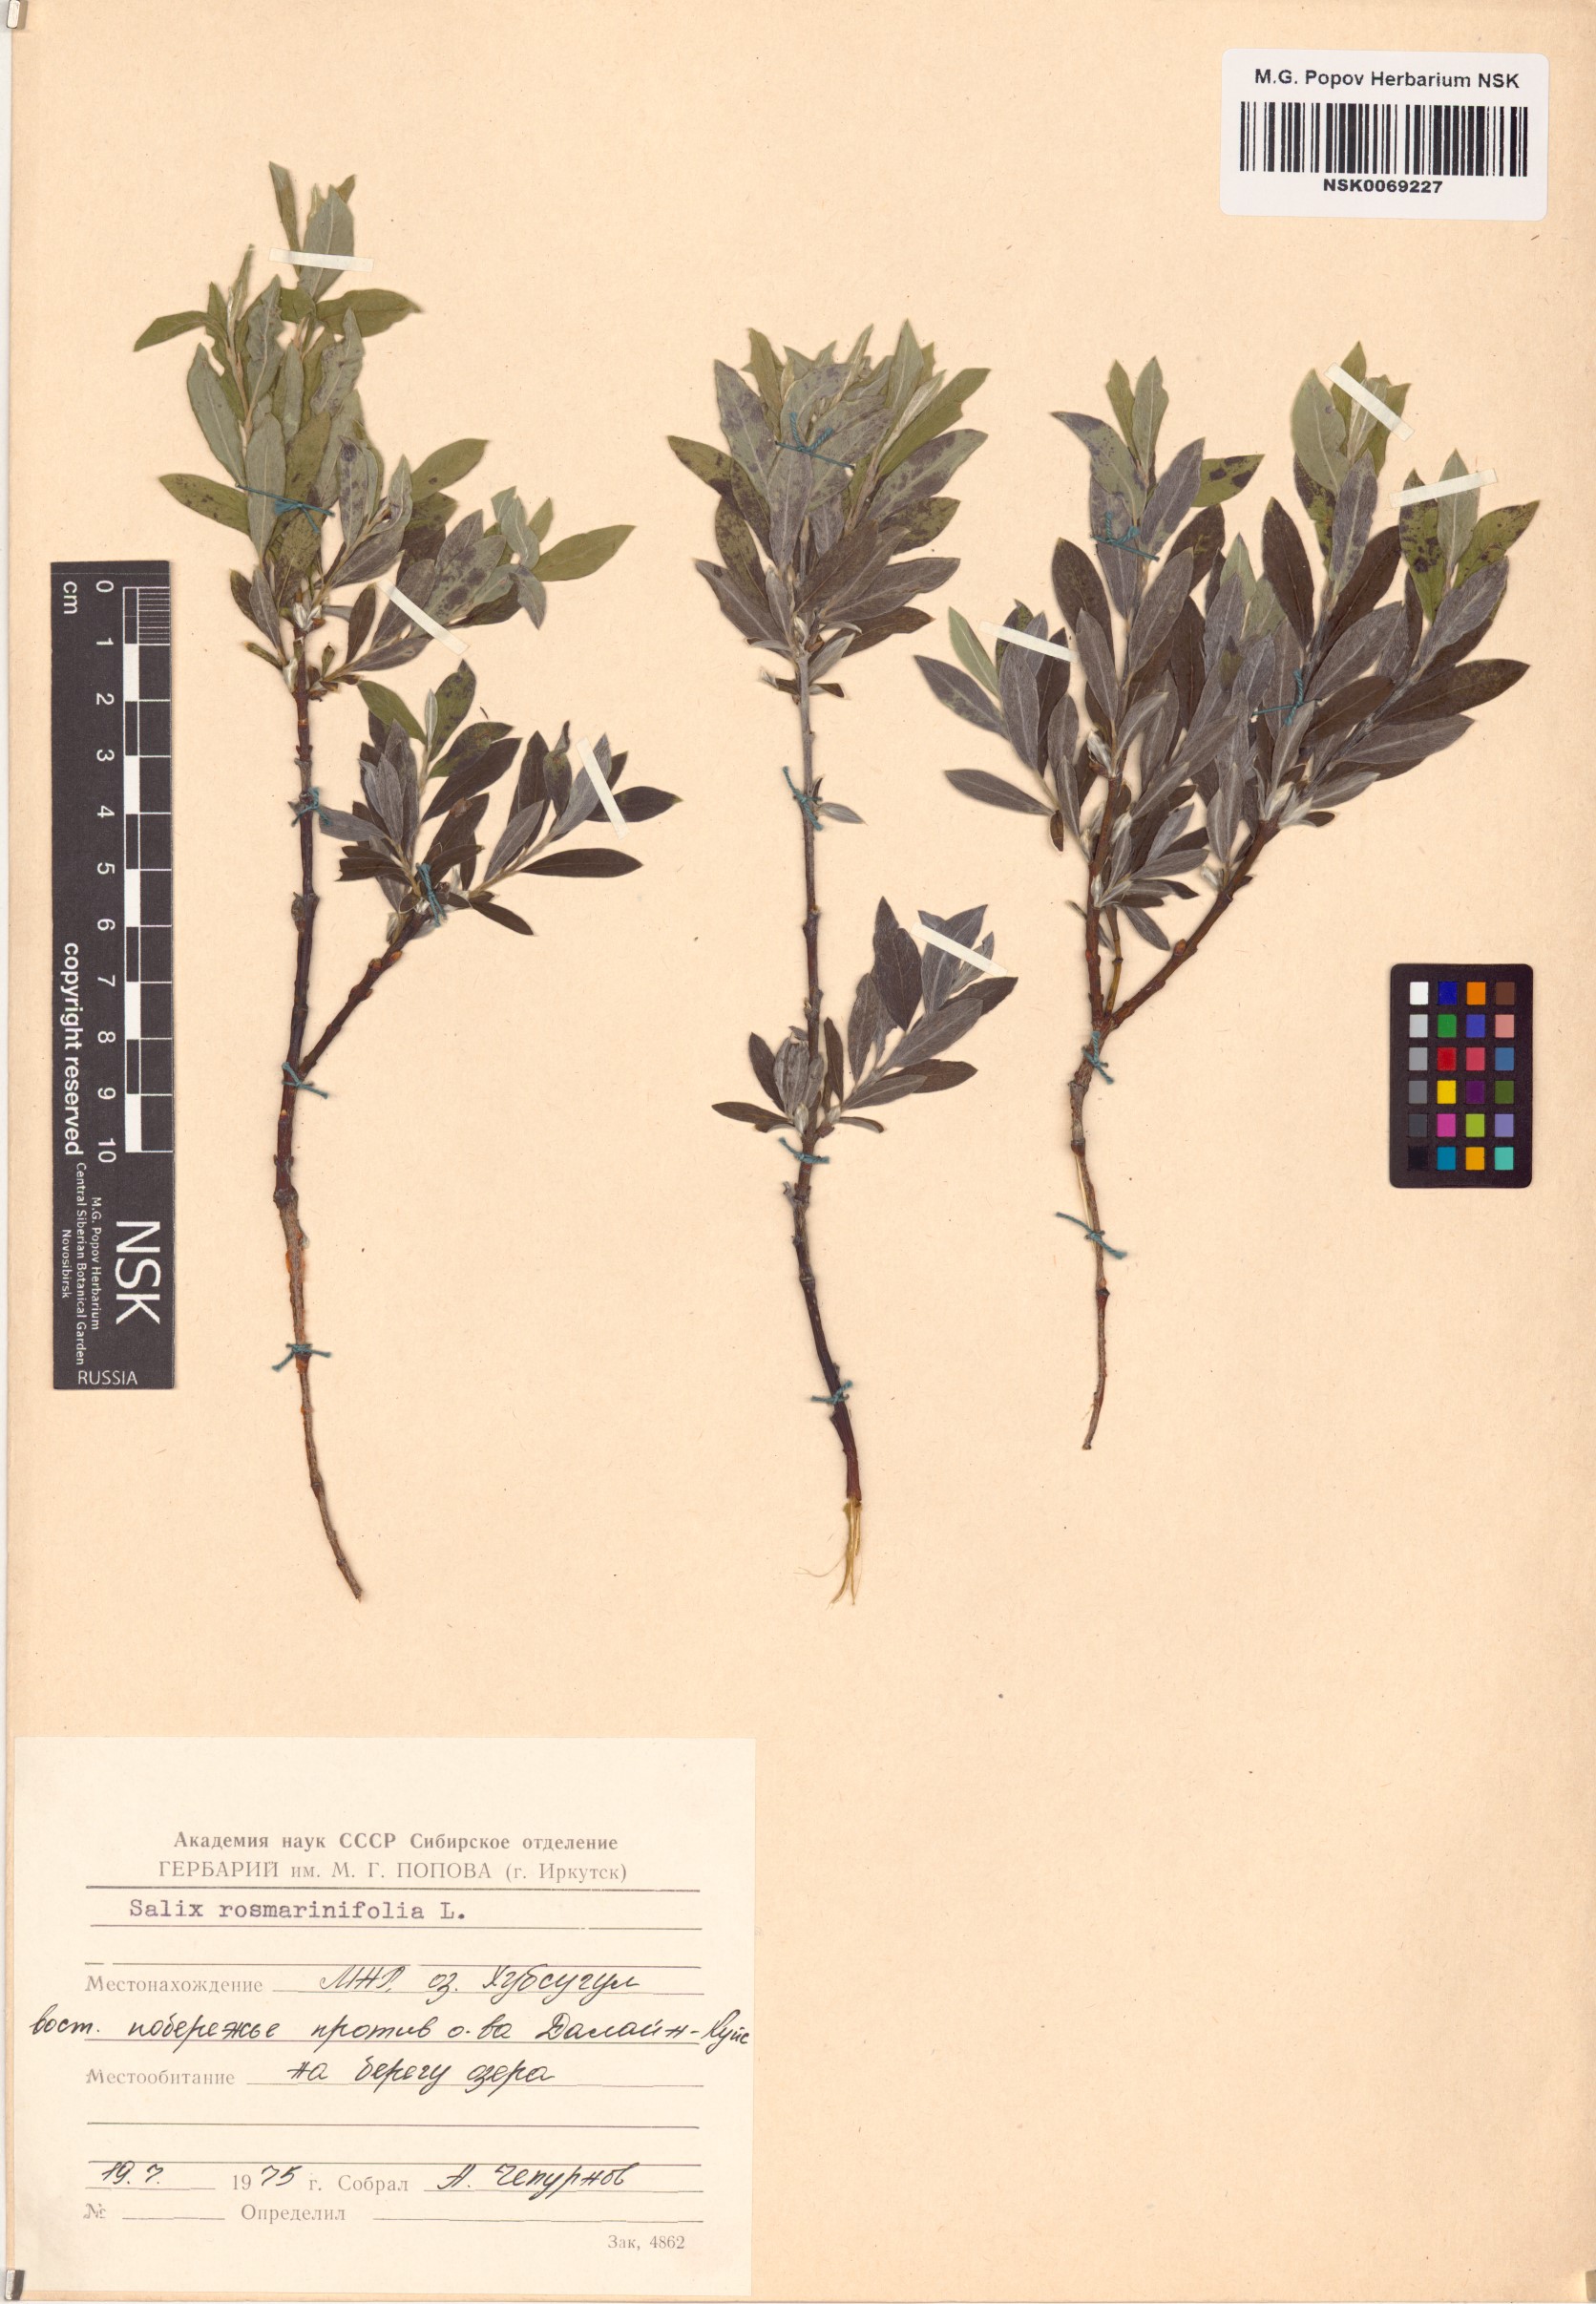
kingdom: Plantae
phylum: Tracheophyta
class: Magnoliopsida
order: Malpighiales
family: Salicaceae
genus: Salix
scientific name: Salix rosmarinifolia
